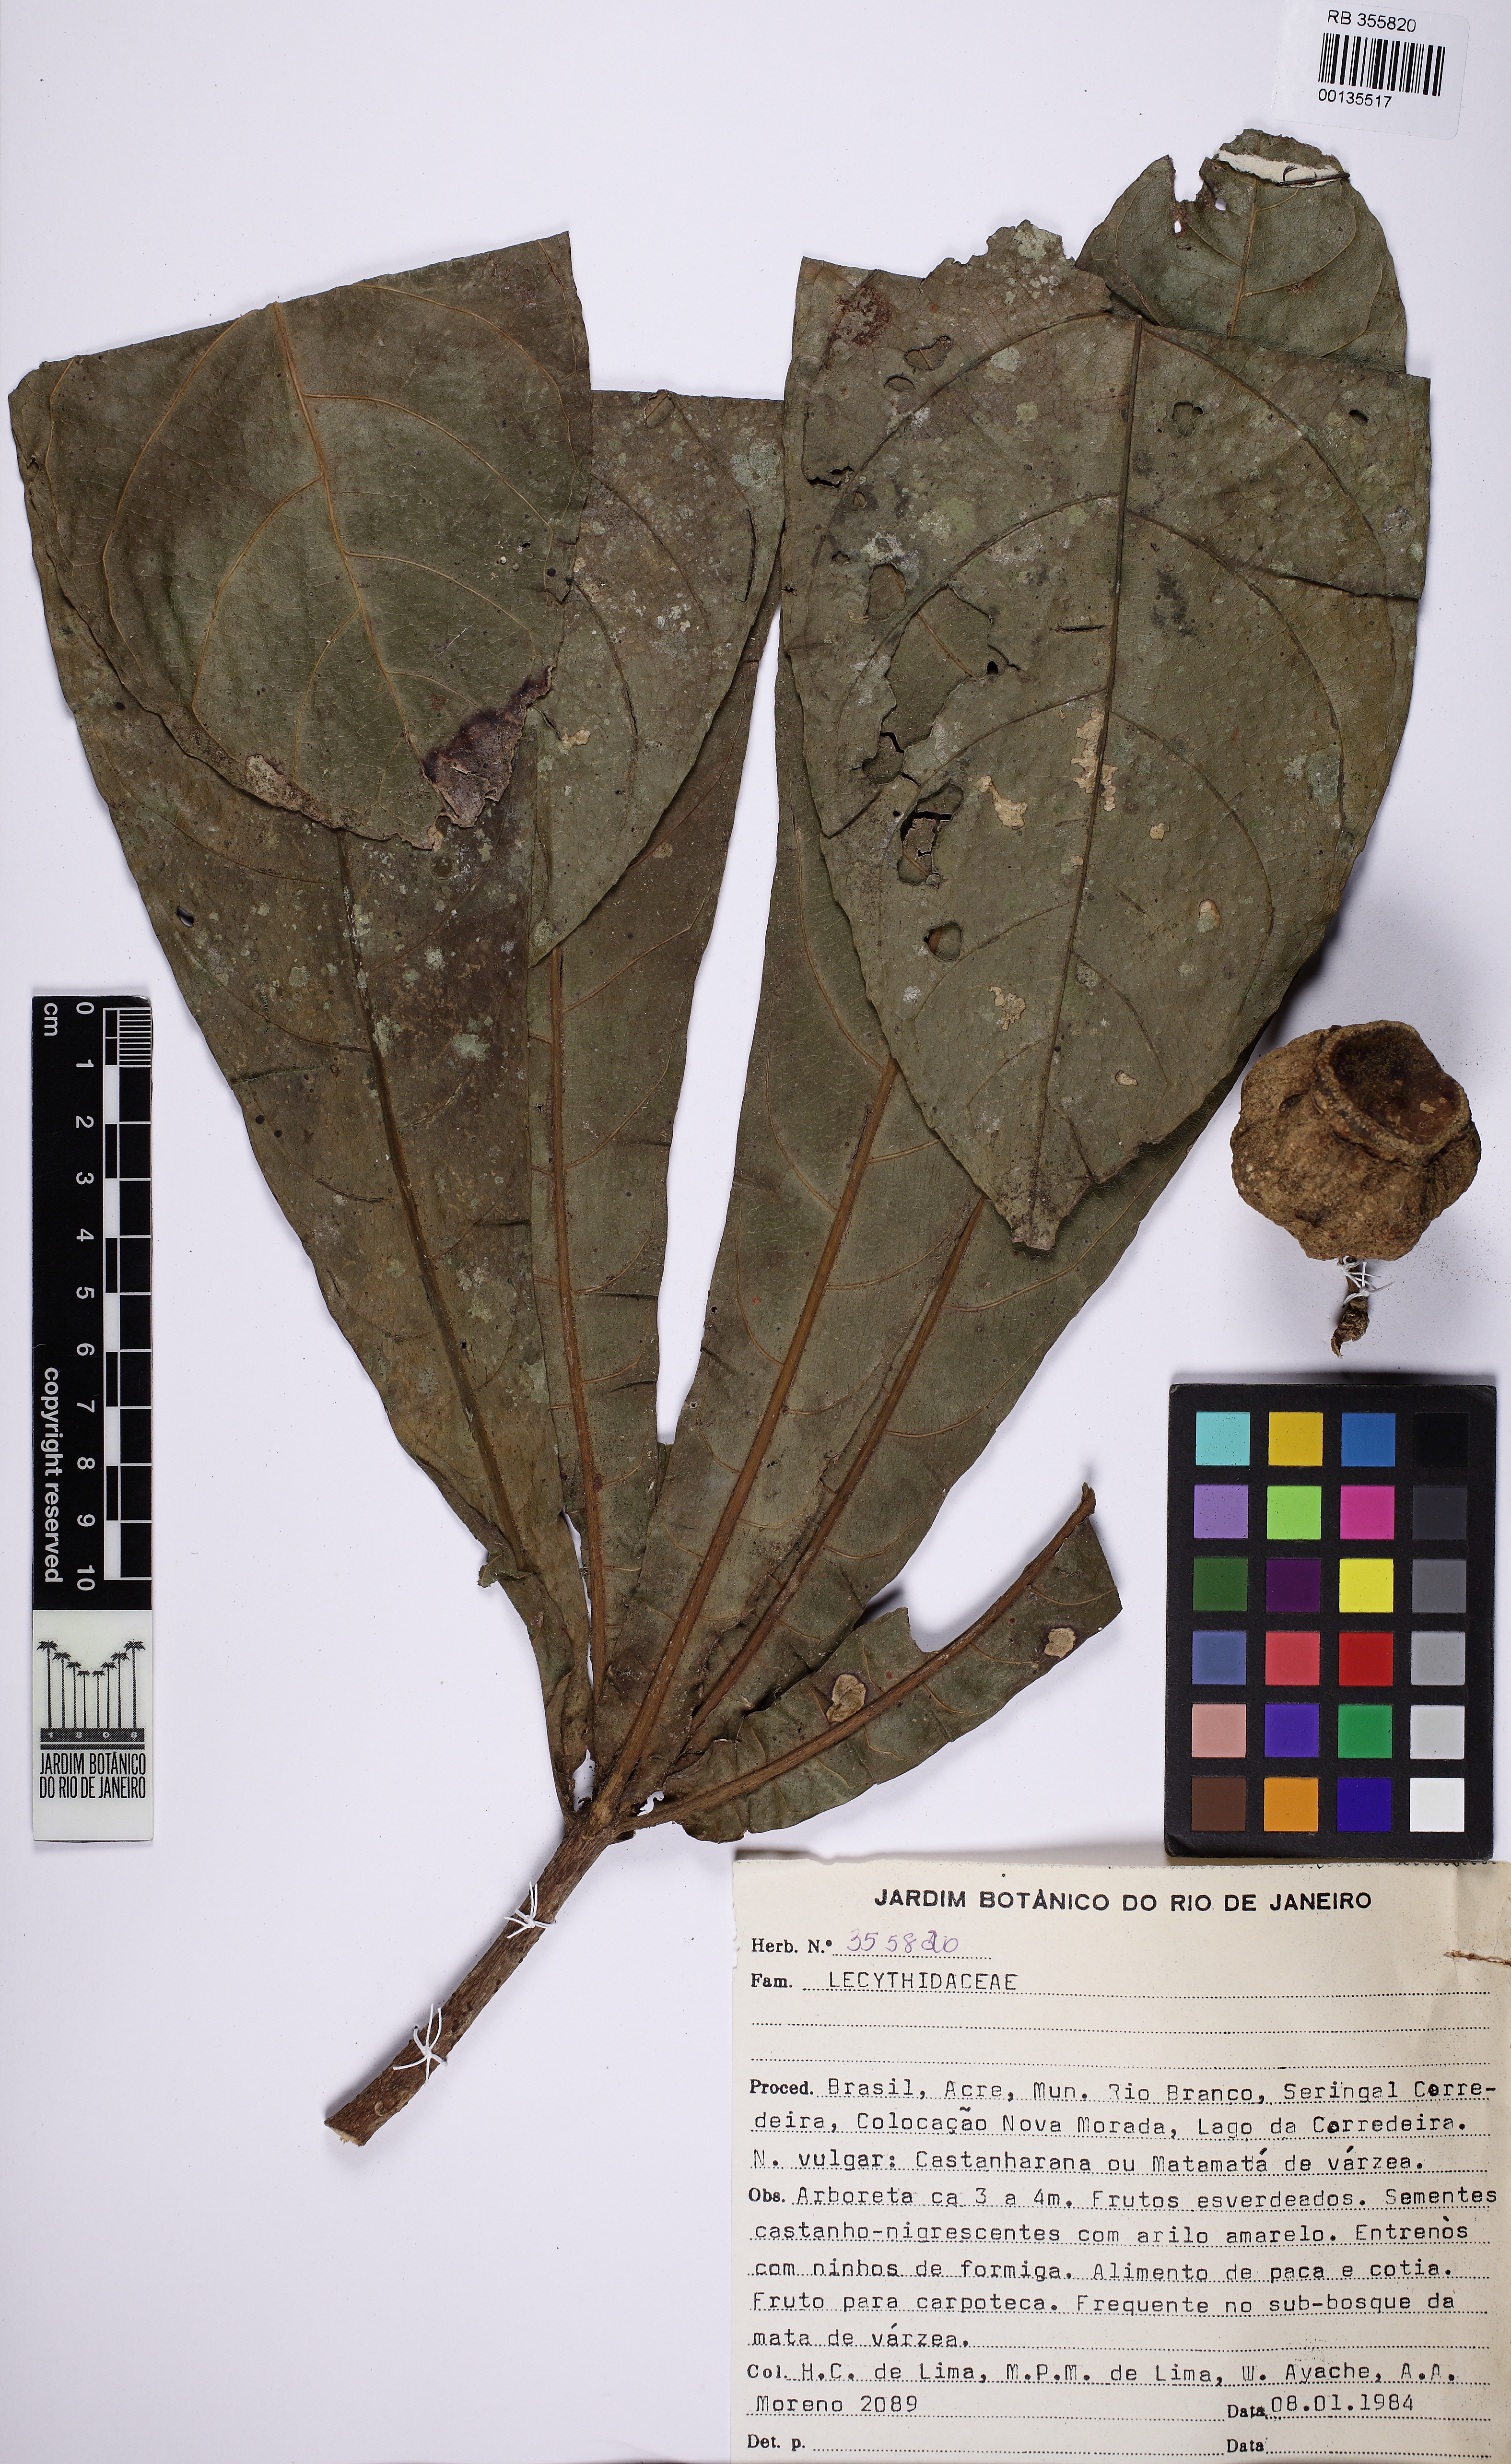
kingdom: Plantae
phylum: Tracheophyta
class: Magnoliopsida
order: Ericales
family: Lecythidaceae
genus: Gustavia
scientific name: Gustavia poeppigiana
